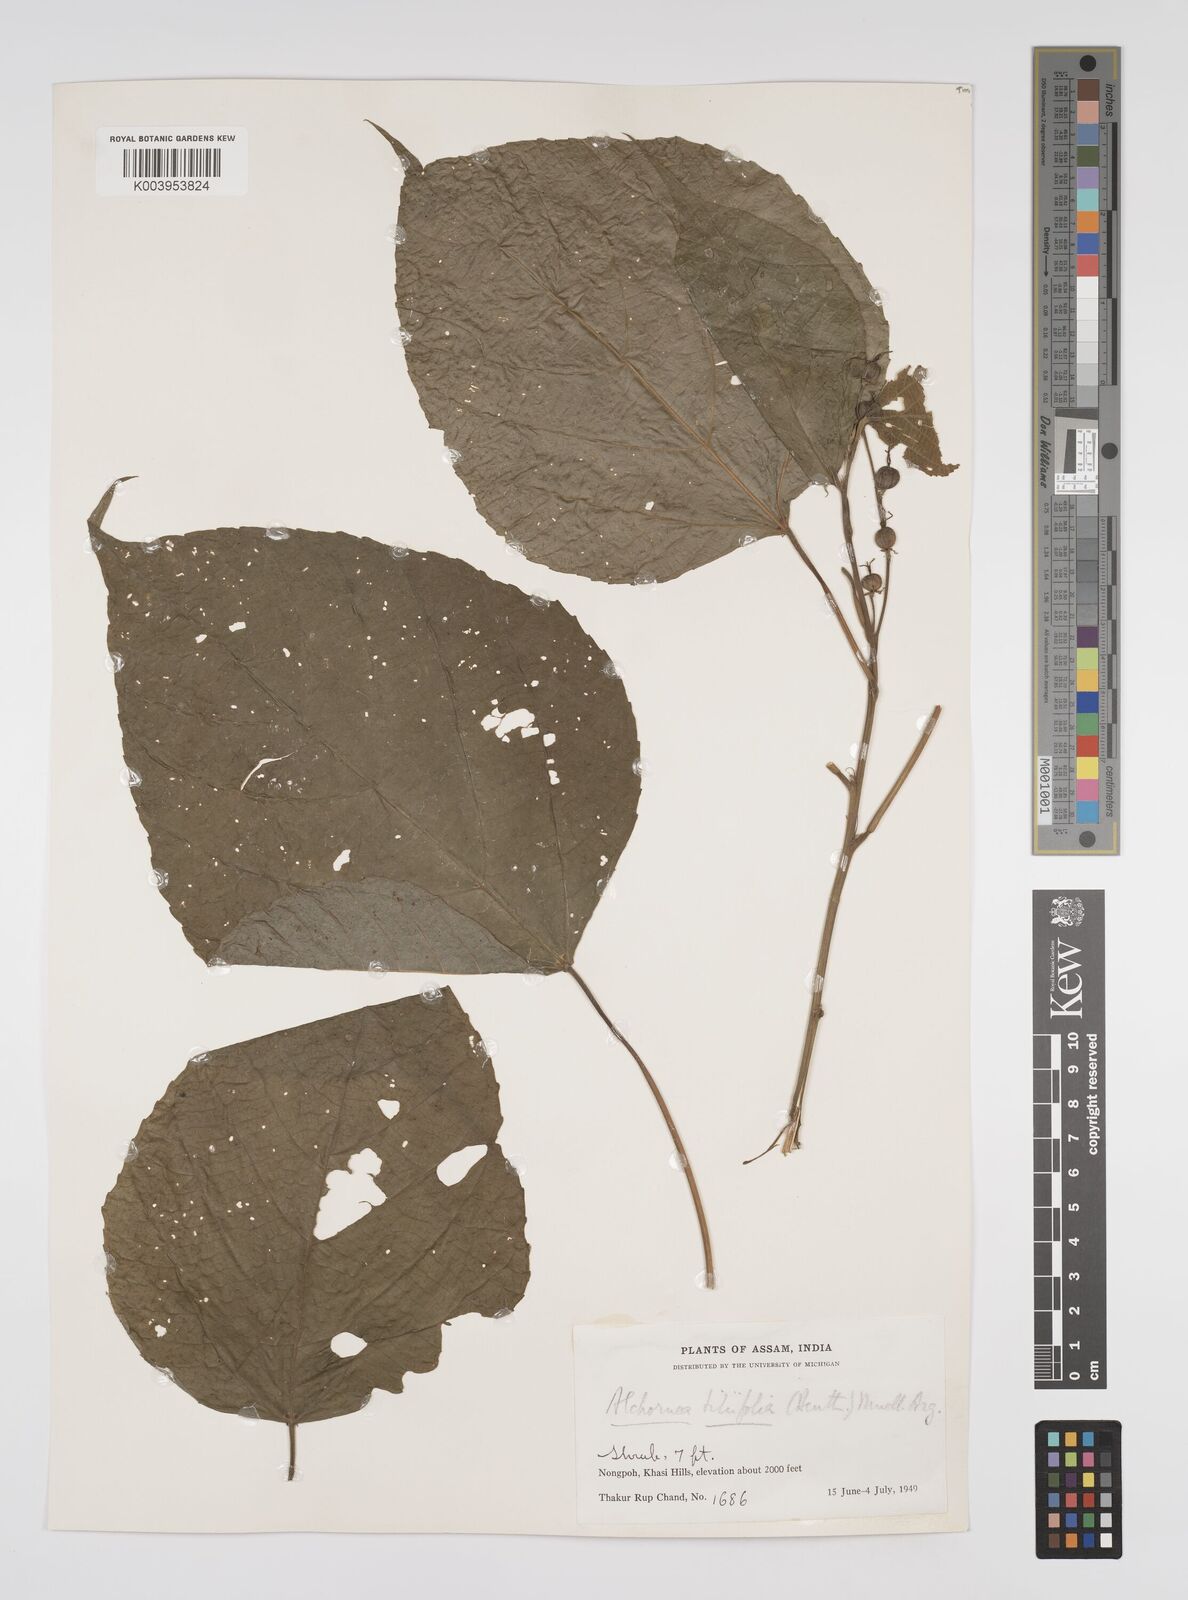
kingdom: Plantae
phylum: Tracheophyta
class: Magnoliopsida
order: Malpighiales
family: Euphorbiaceae
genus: Alchornea
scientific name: Alchornea tiliifolia
